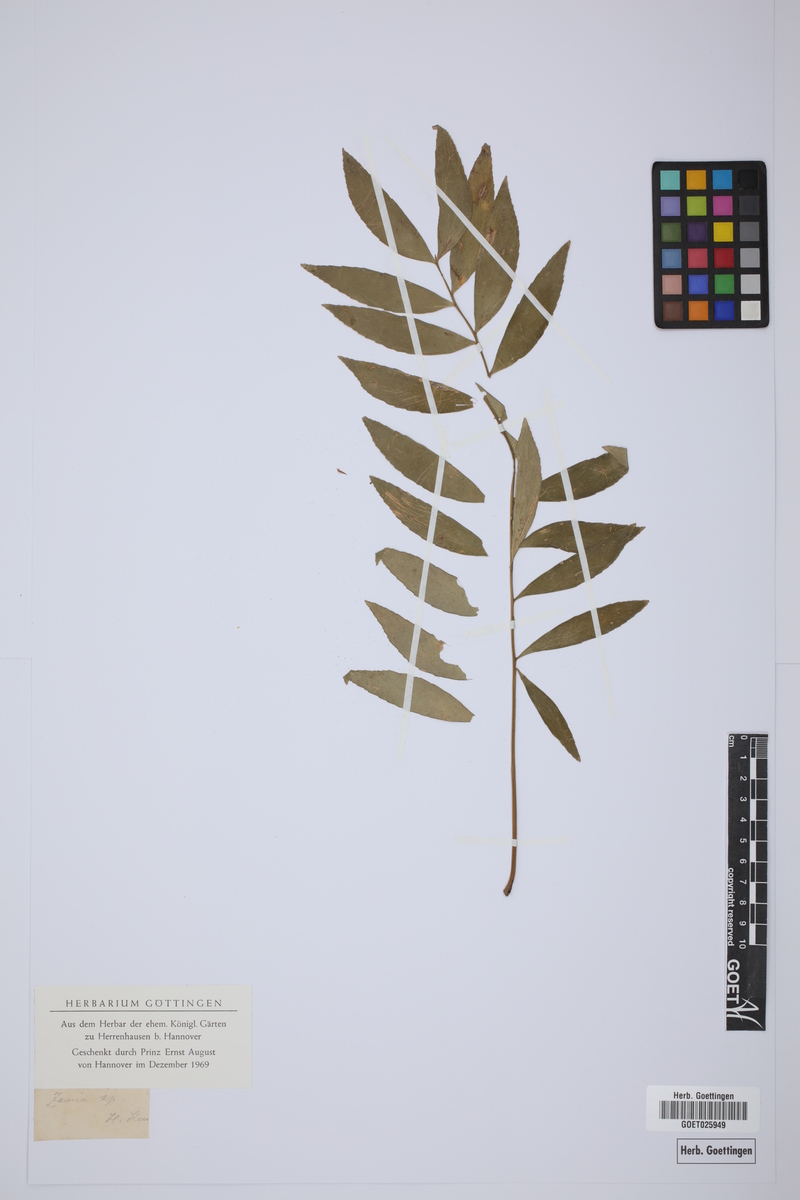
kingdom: Plantae
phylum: Tracheophyta
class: Cycadopsida
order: Cycadales
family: Zamiaceae
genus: Zamia
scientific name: Zamia
